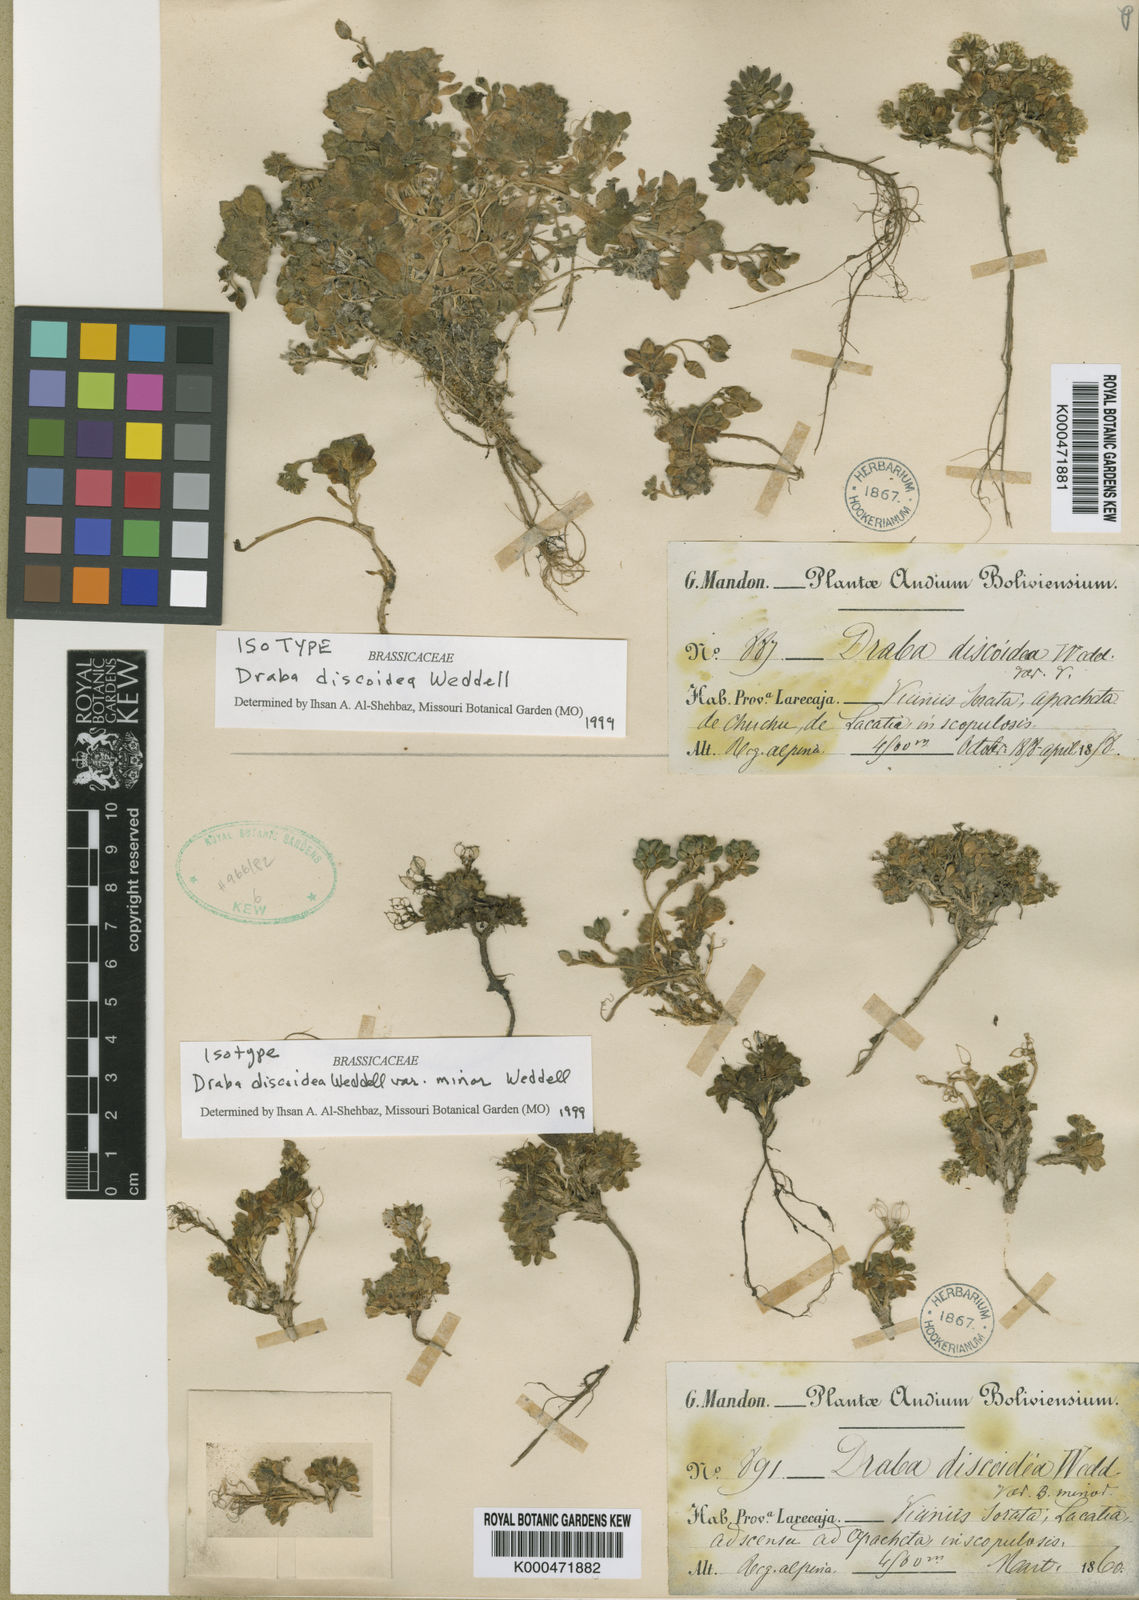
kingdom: Plantae
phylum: Tracheophyta
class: Magnoliopsida
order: Brassicales
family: Brassicaceae
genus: Draba
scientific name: Draba discoidea
